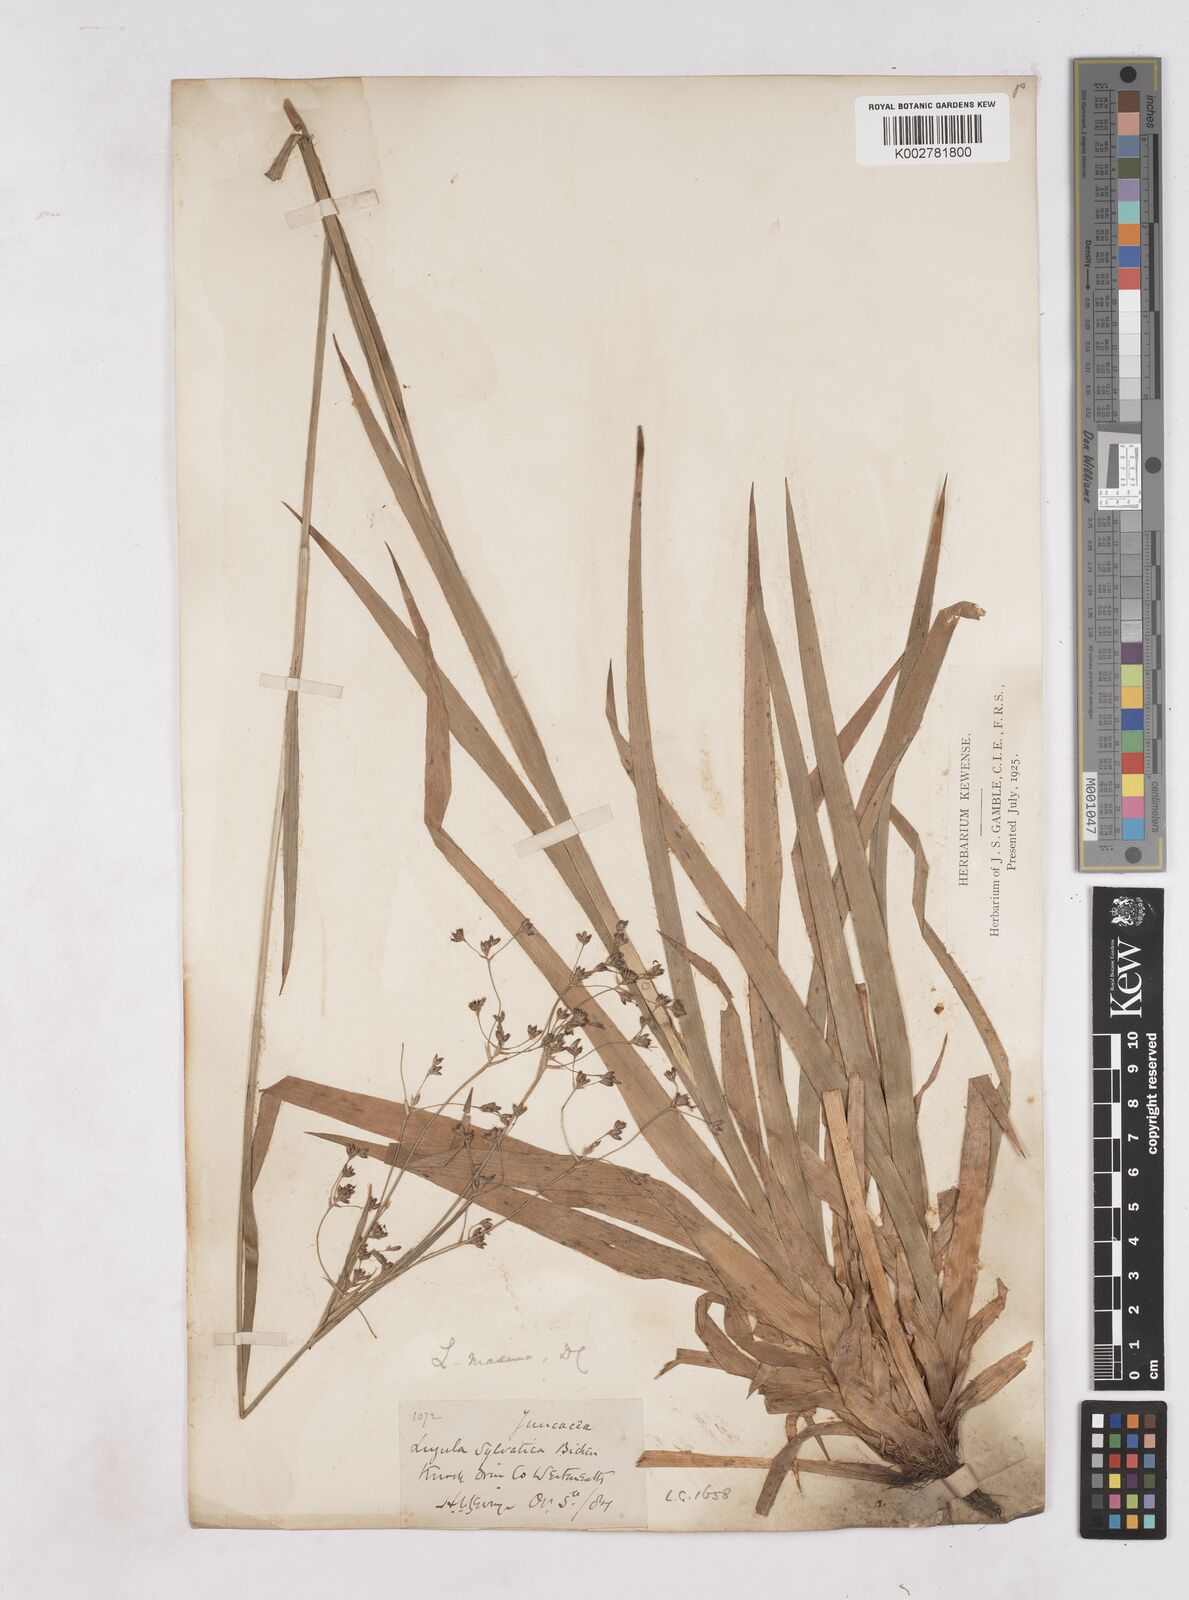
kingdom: Plantae
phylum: Tracheophyta
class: Liliopsida
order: Poales
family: Juncaceae
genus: Luzula
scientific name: Luzula sylvatica
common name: Great wood-rush
